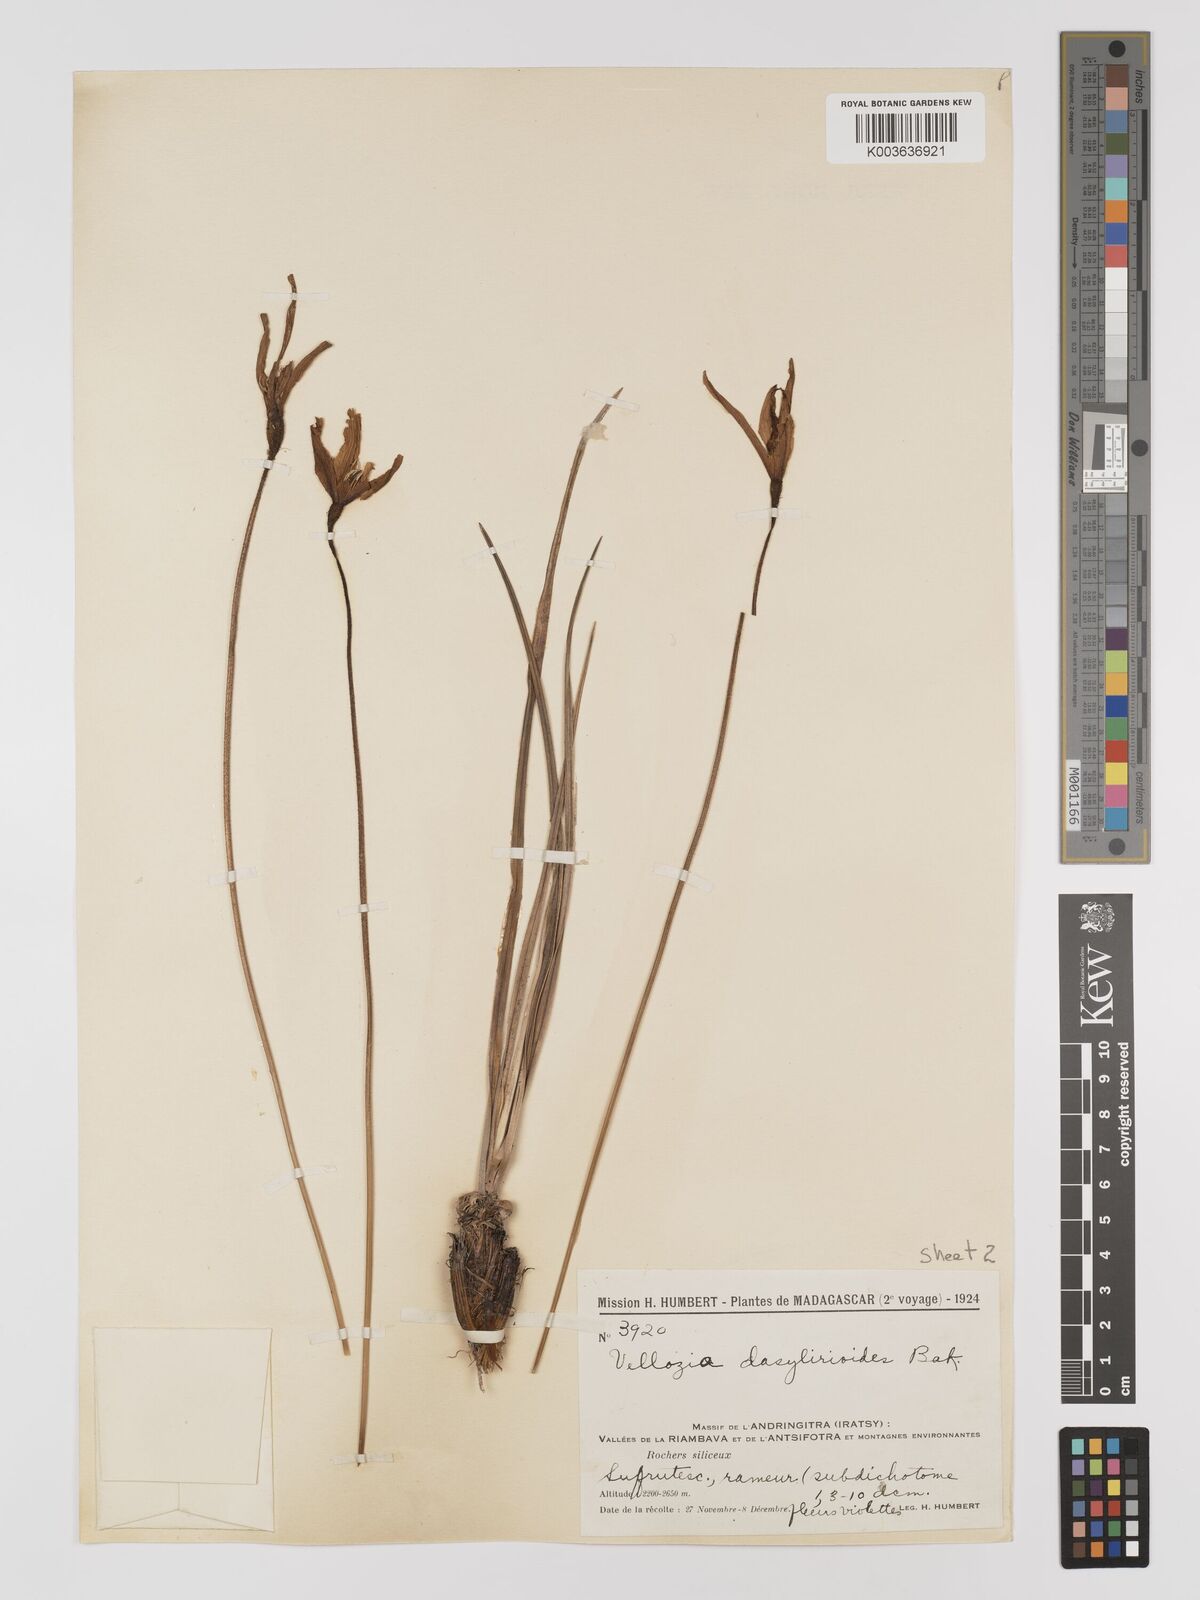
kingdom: Plantae
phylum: Tracheophyta
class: Liliopsida
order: Pandanales
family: Velloziaceae
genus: Xerophyta
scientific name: Xerophyta dasylirioides
